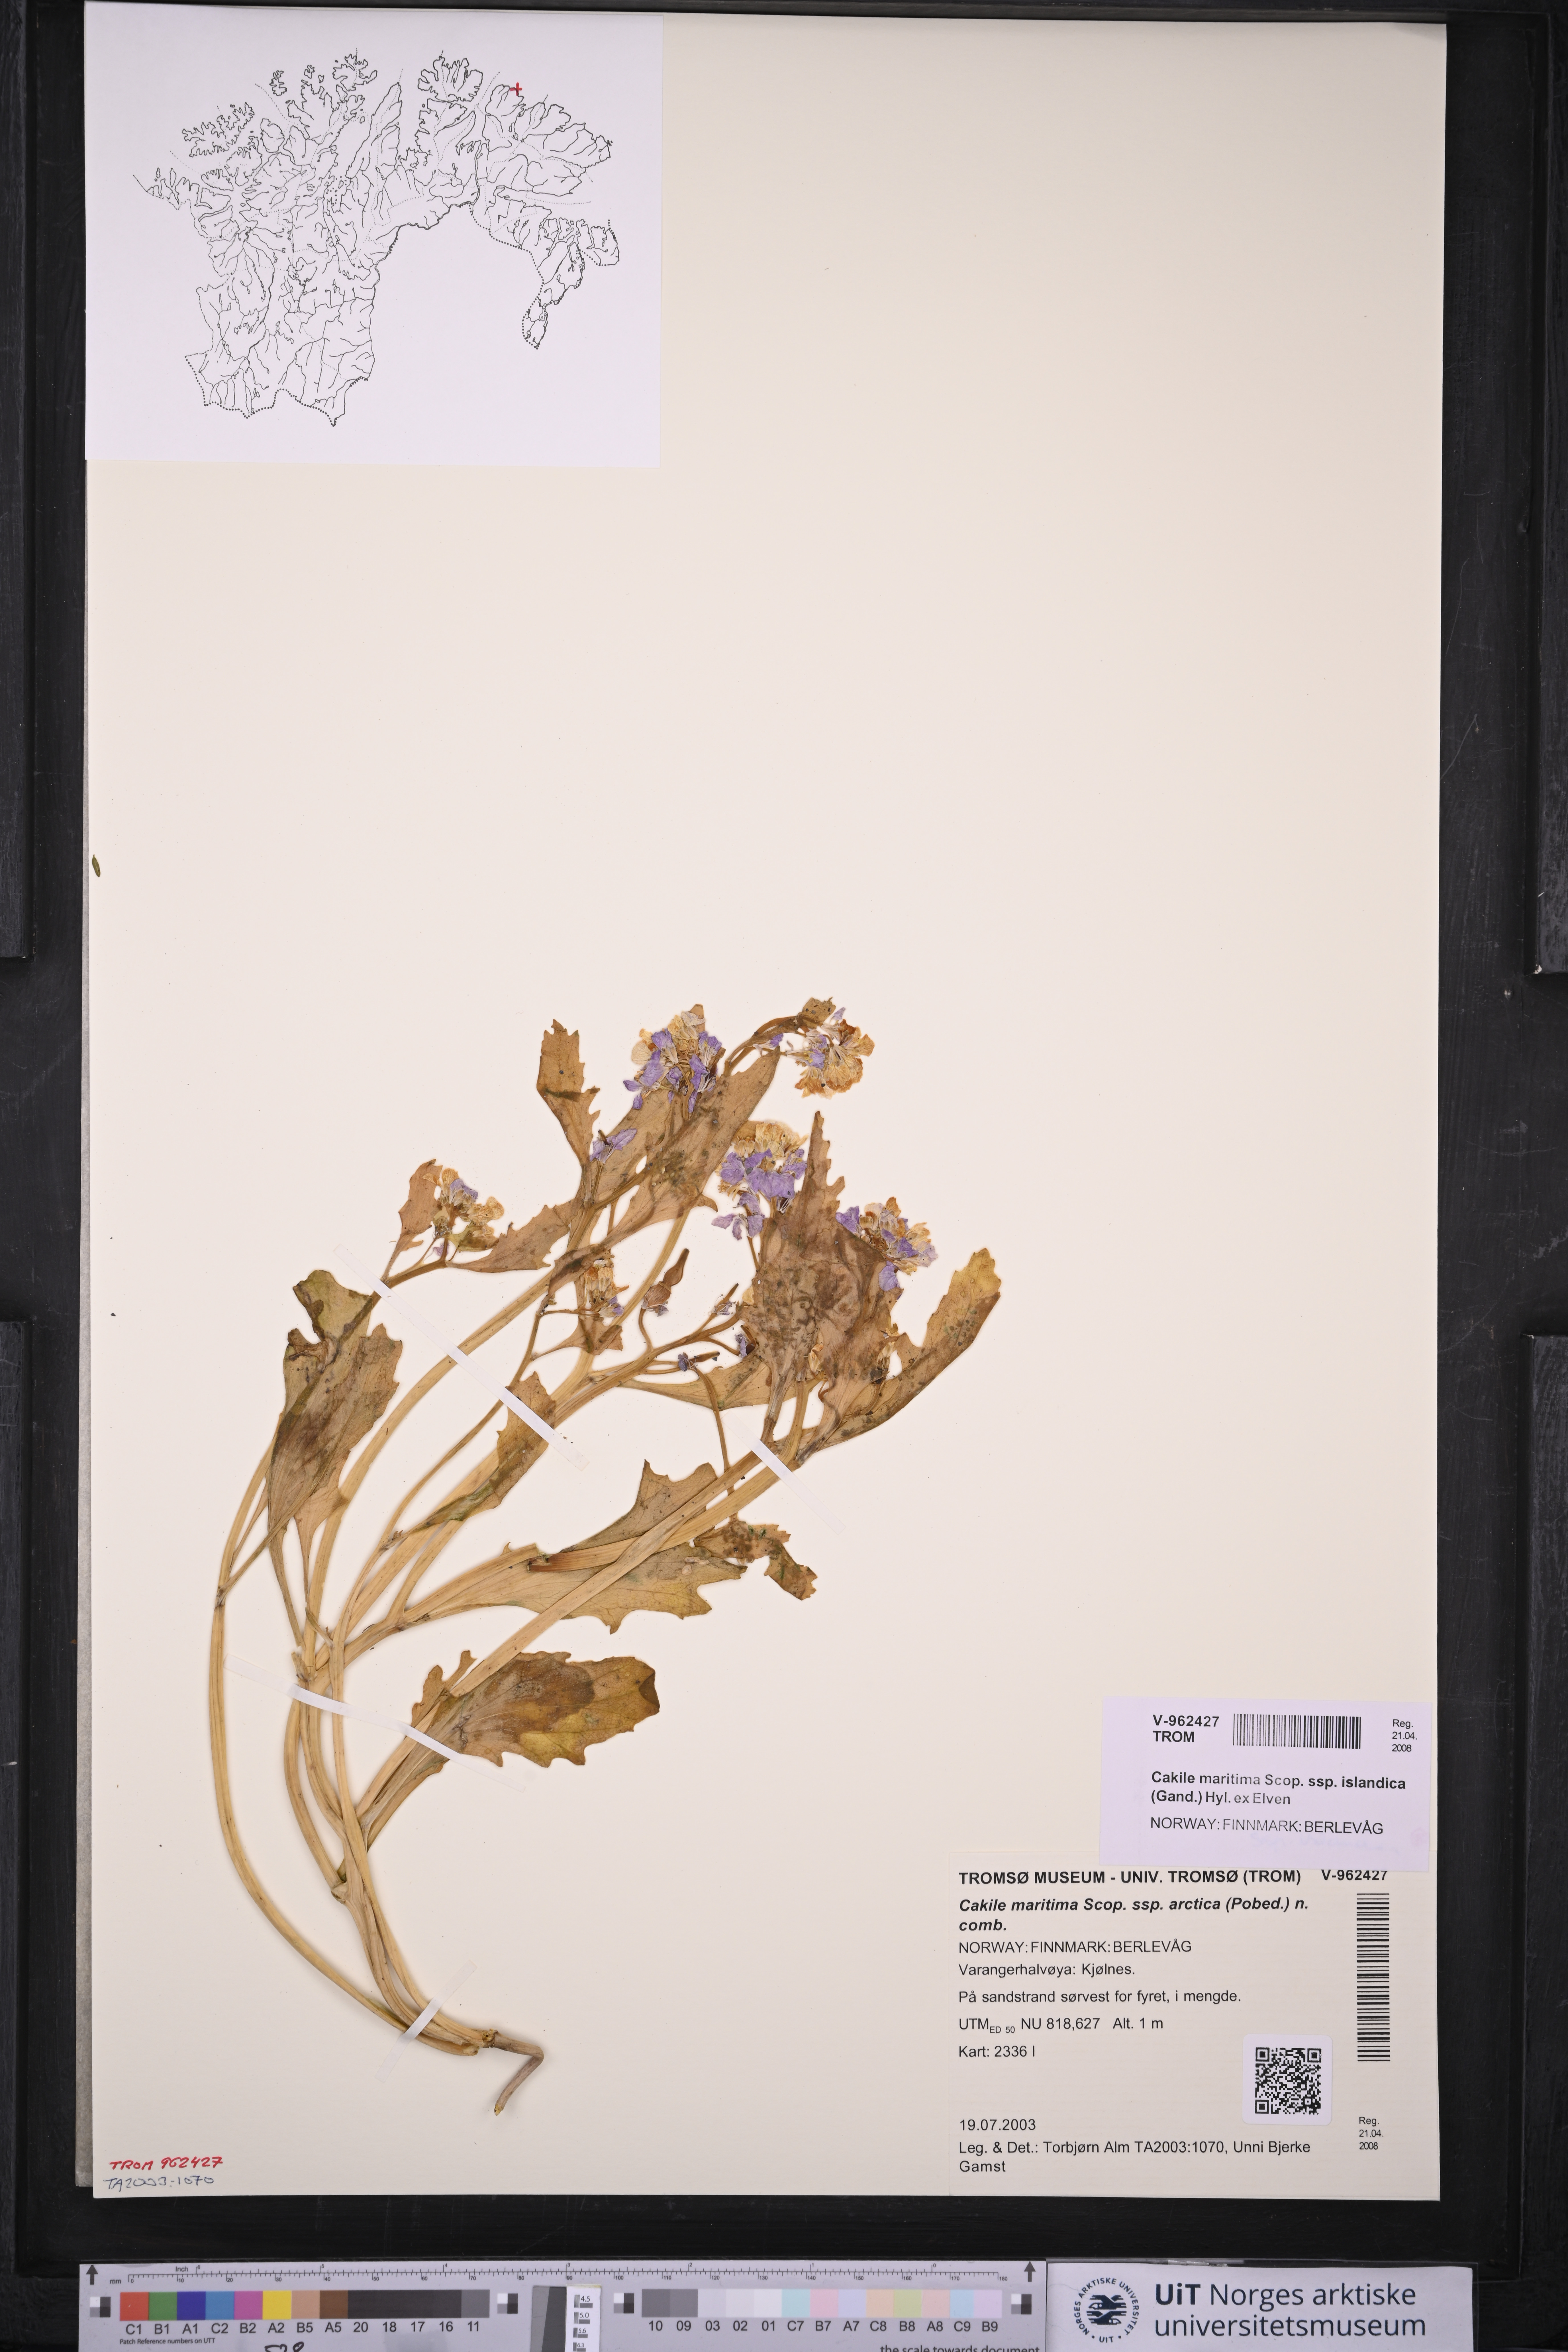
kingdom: Plantae
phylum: Tracheophyta
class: Magnoliopsida
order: Brassicales
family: Brassicaceae
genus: Cakile
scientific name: Cakile arctica
